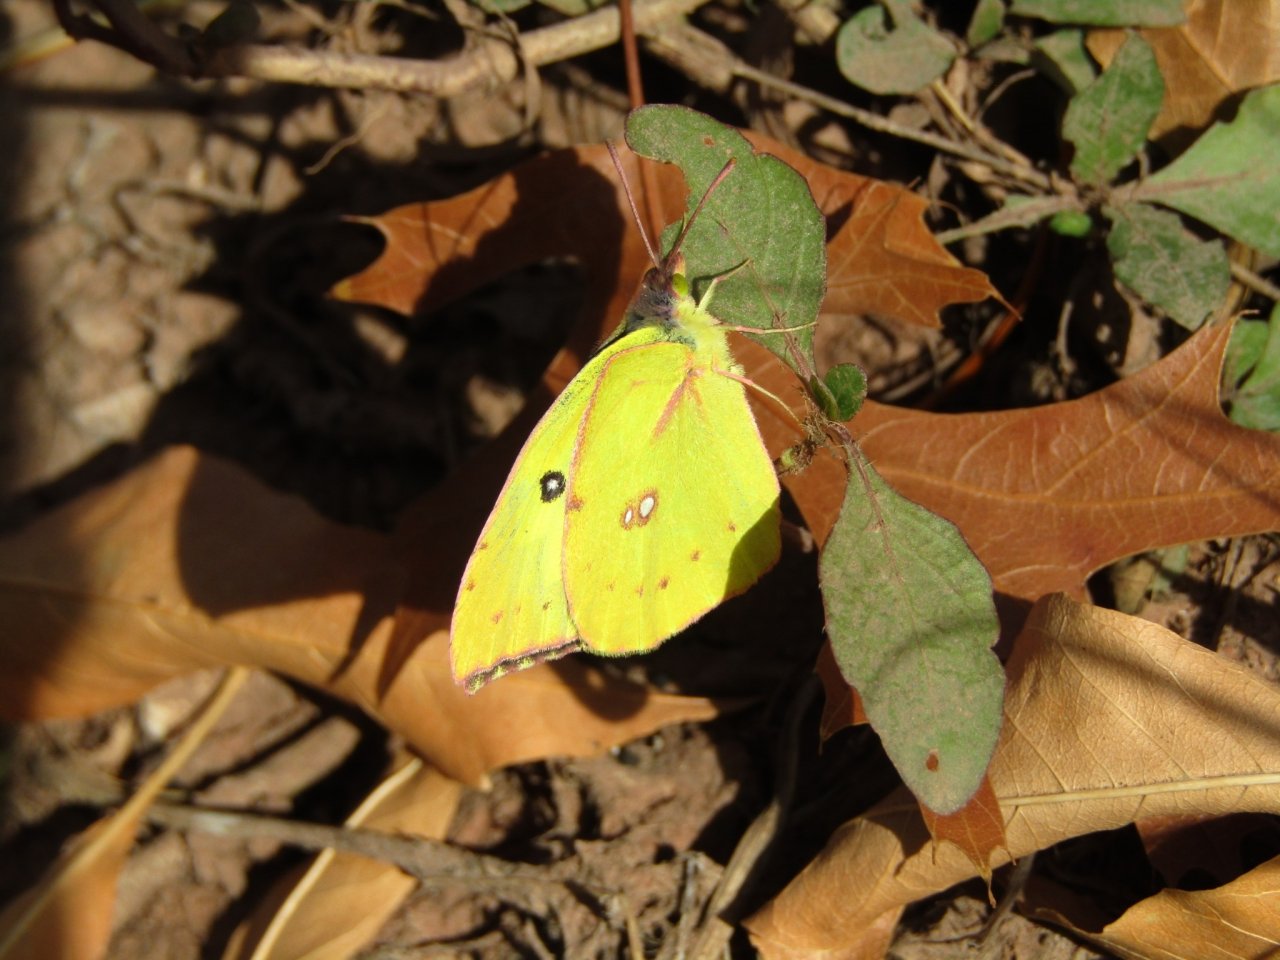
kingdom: Animalia
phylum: Arthropoda
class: Insecta
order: Lepidoptera
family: Pieridae
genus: Zerene
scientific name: Zerene cesonia
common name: Southern Dogface
